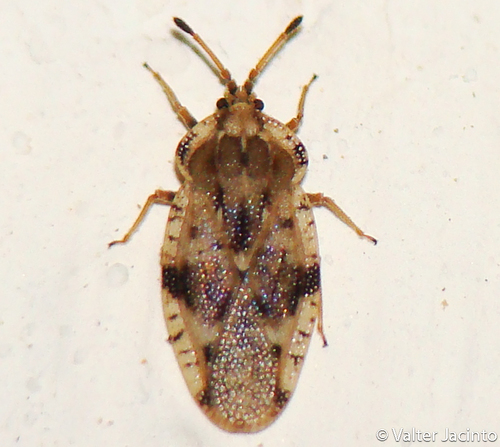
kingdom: Animalia
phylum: Arthropoda
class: Insecta
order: Hemiptera
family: Tingidae
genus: Tingis
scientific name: Tingis cardui
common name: Spear thistle lacebug
